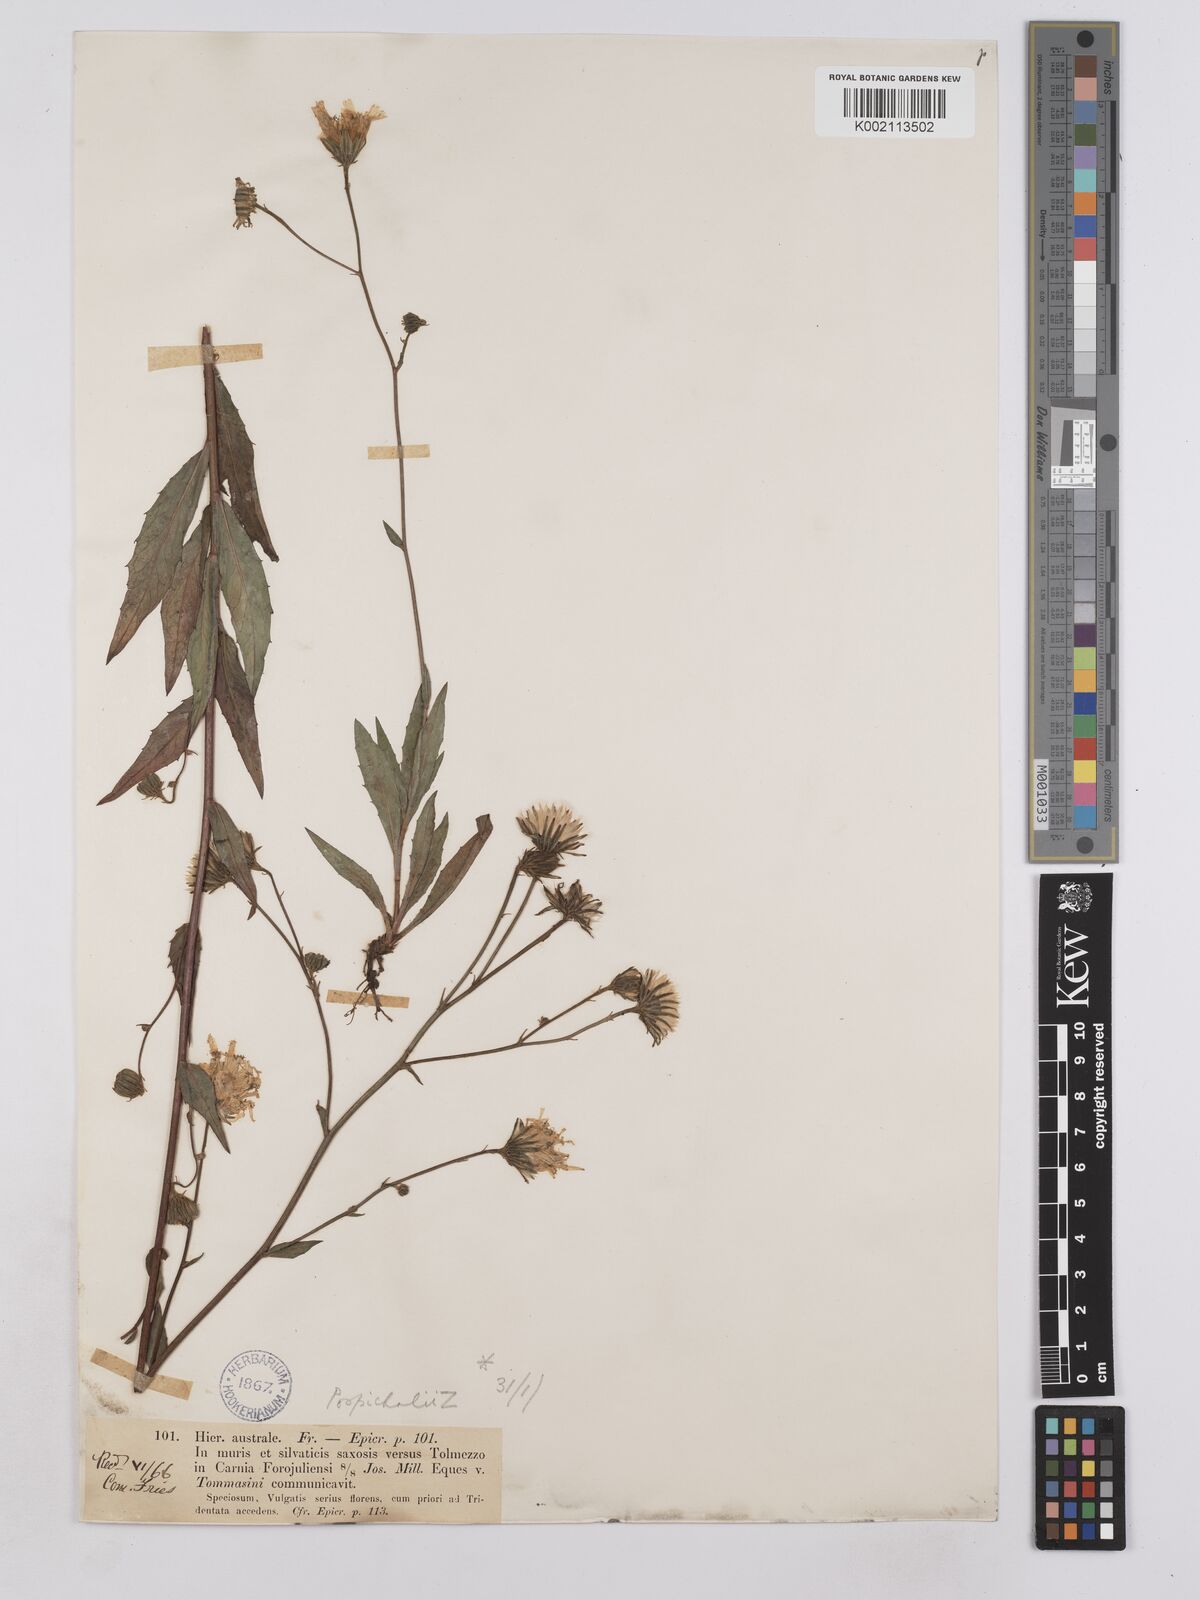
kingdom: Plantae
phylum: Tracheophyta
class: Magnoliopsida
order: Asterales
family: Asteraceae
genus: Hieracium
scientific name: Hieracium porrifolium
